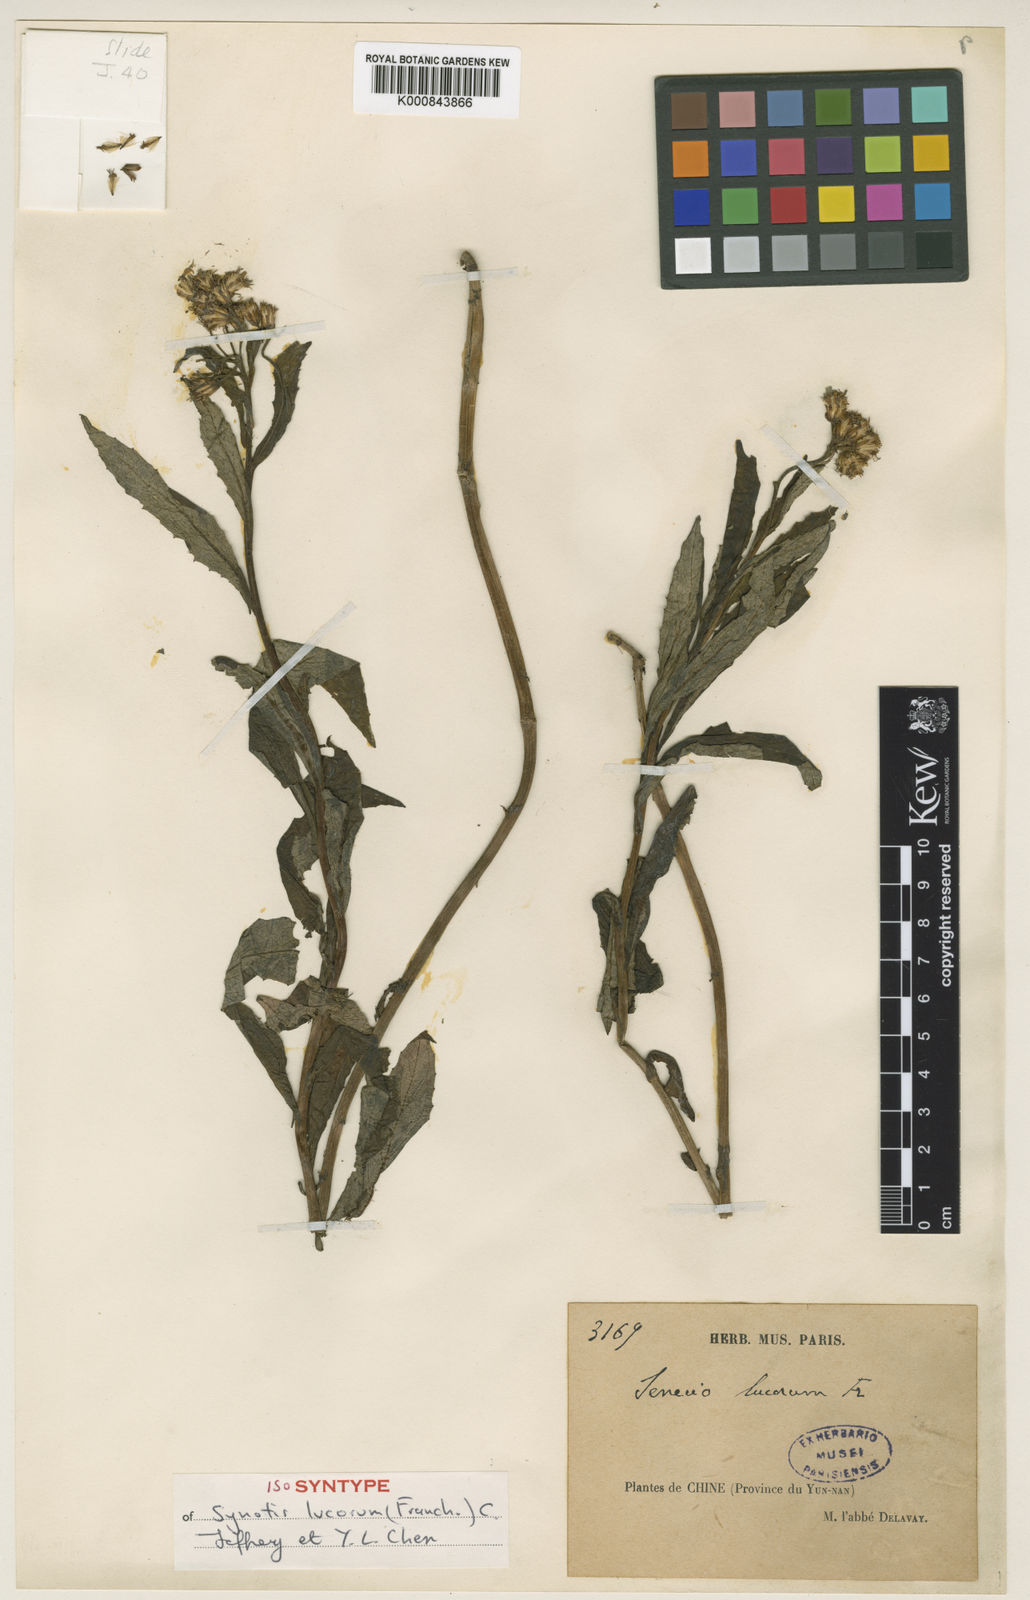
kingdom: Plantae
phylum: Tracheophyta
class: Magnoliopsida
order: Asterales
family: Asteraceae
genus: Synotis
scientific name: Synotis lucorum
